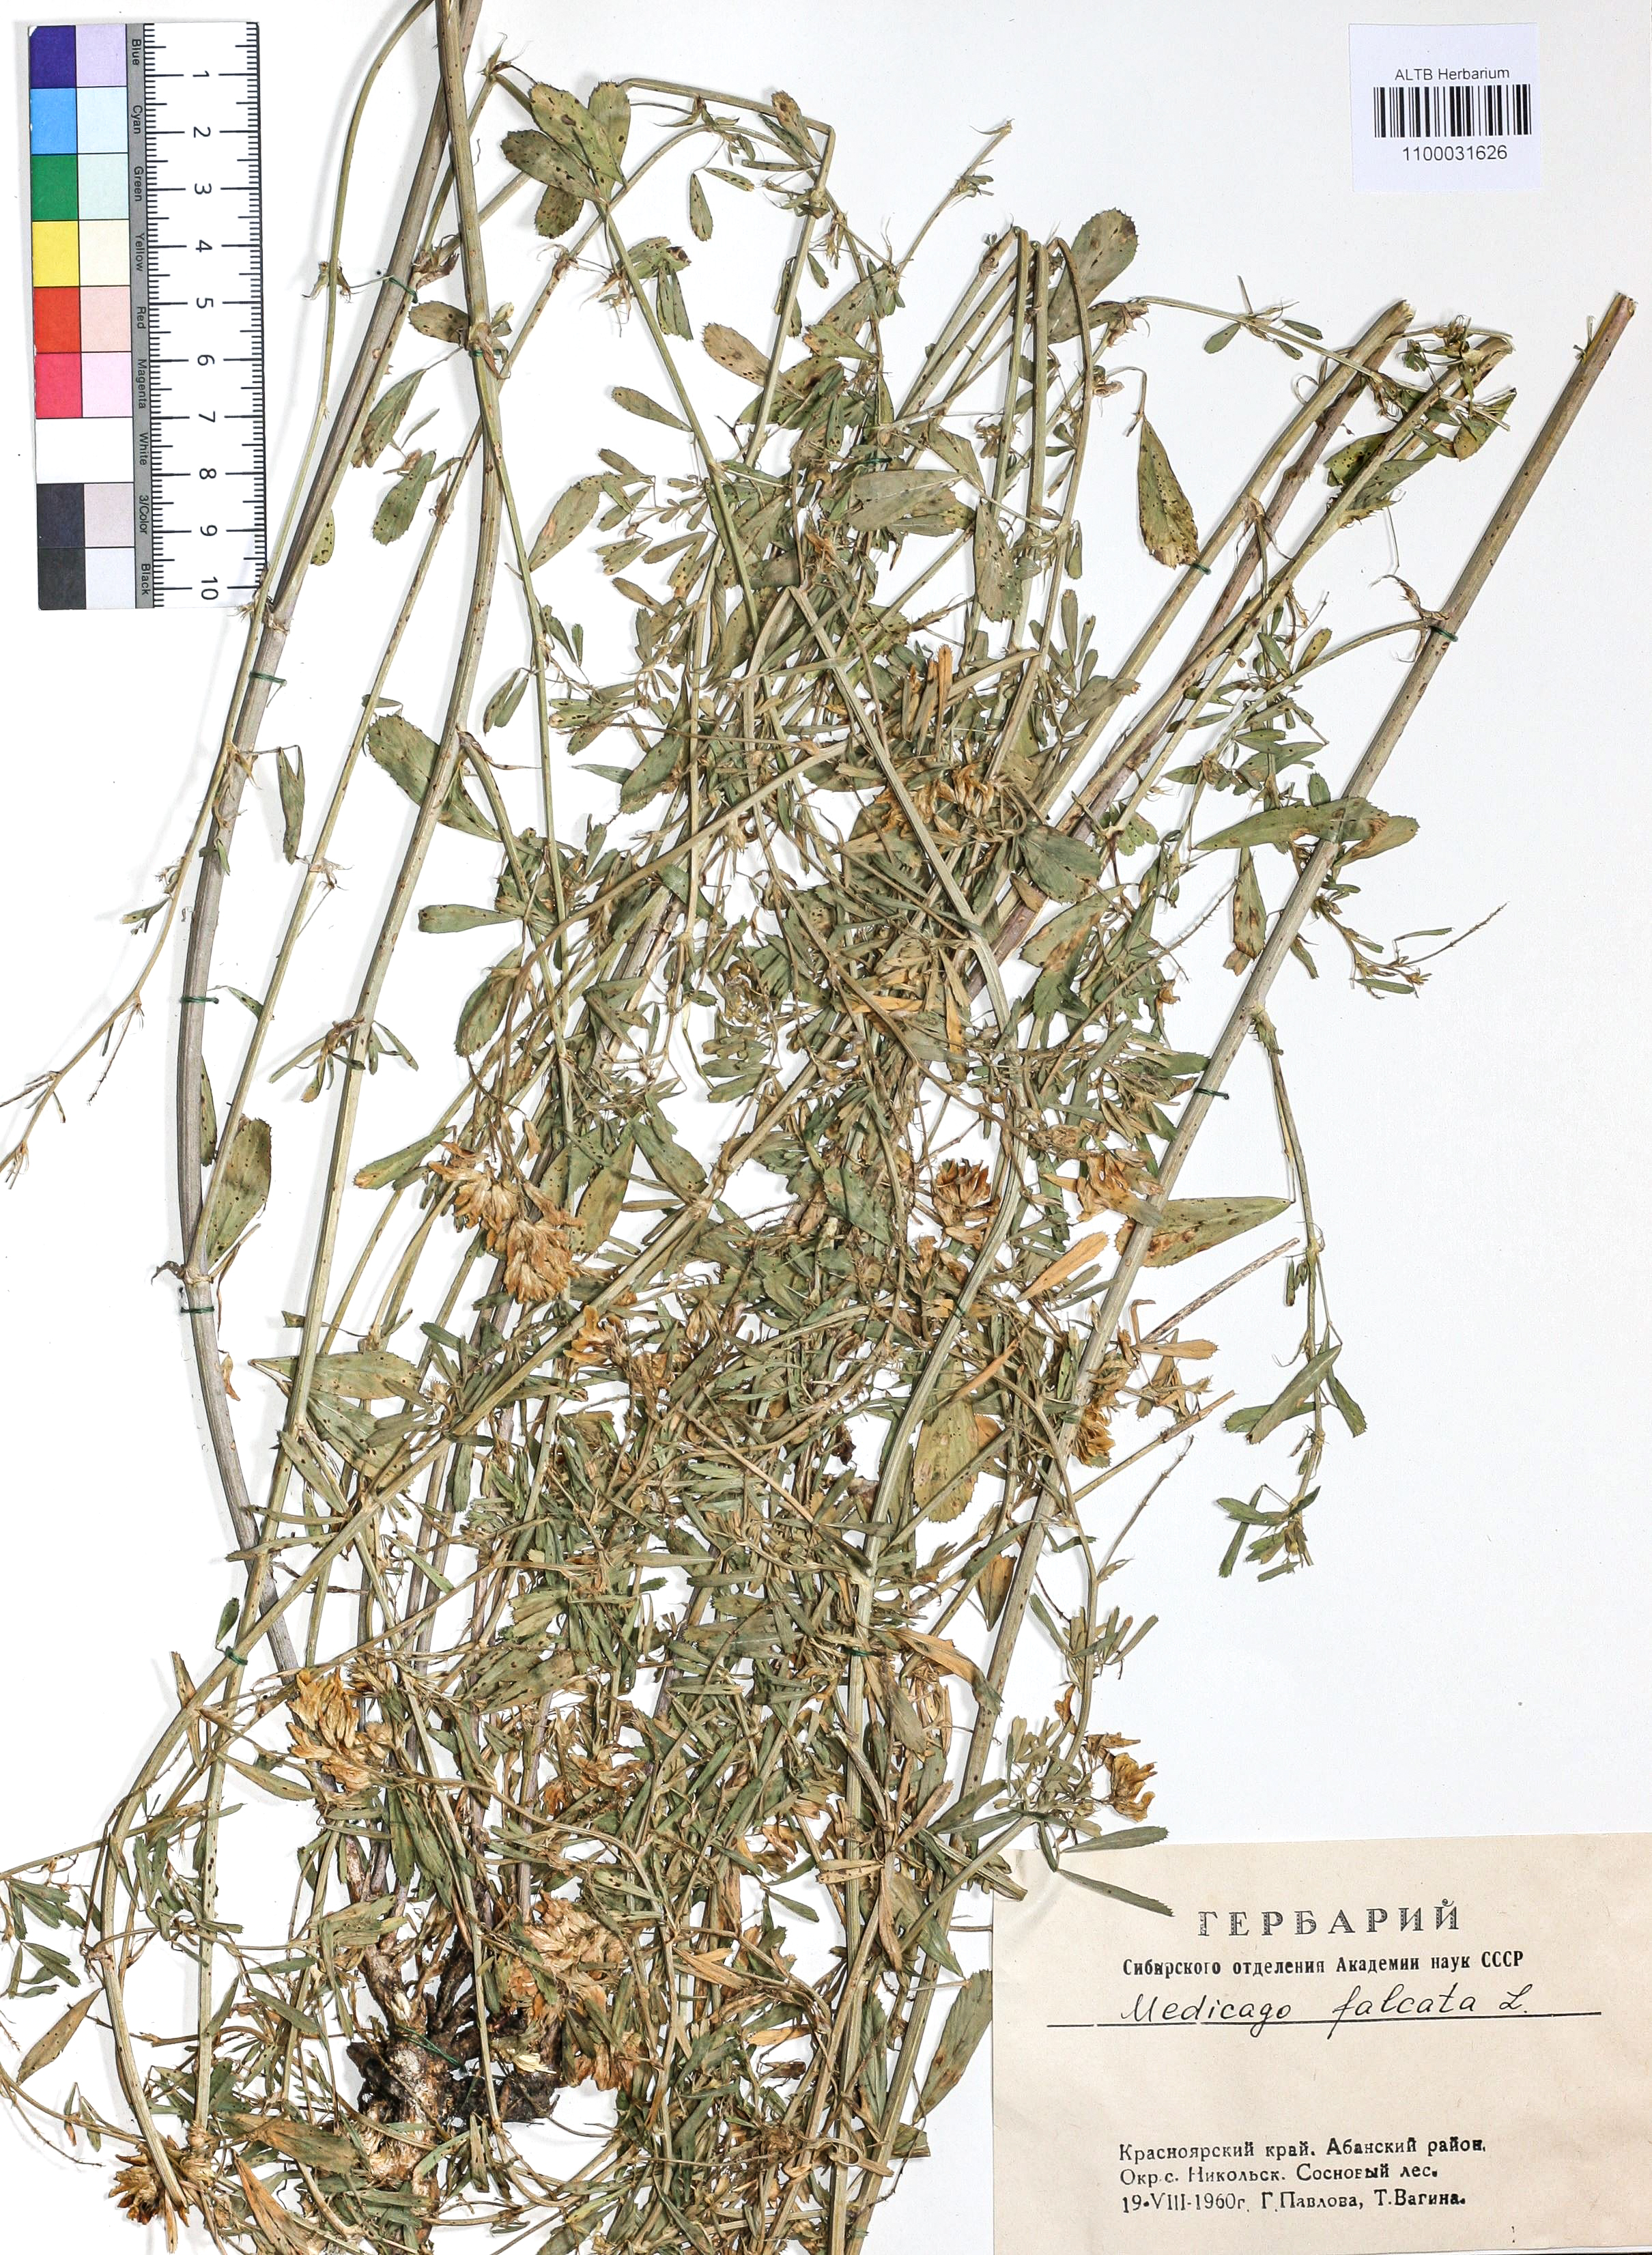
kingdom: Plantae
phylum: Tracheophyta
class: Magnoliopsida
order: Fabales
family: Fabaceae
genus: Medicago
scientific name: Medicago falcata
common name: Sickle medick
